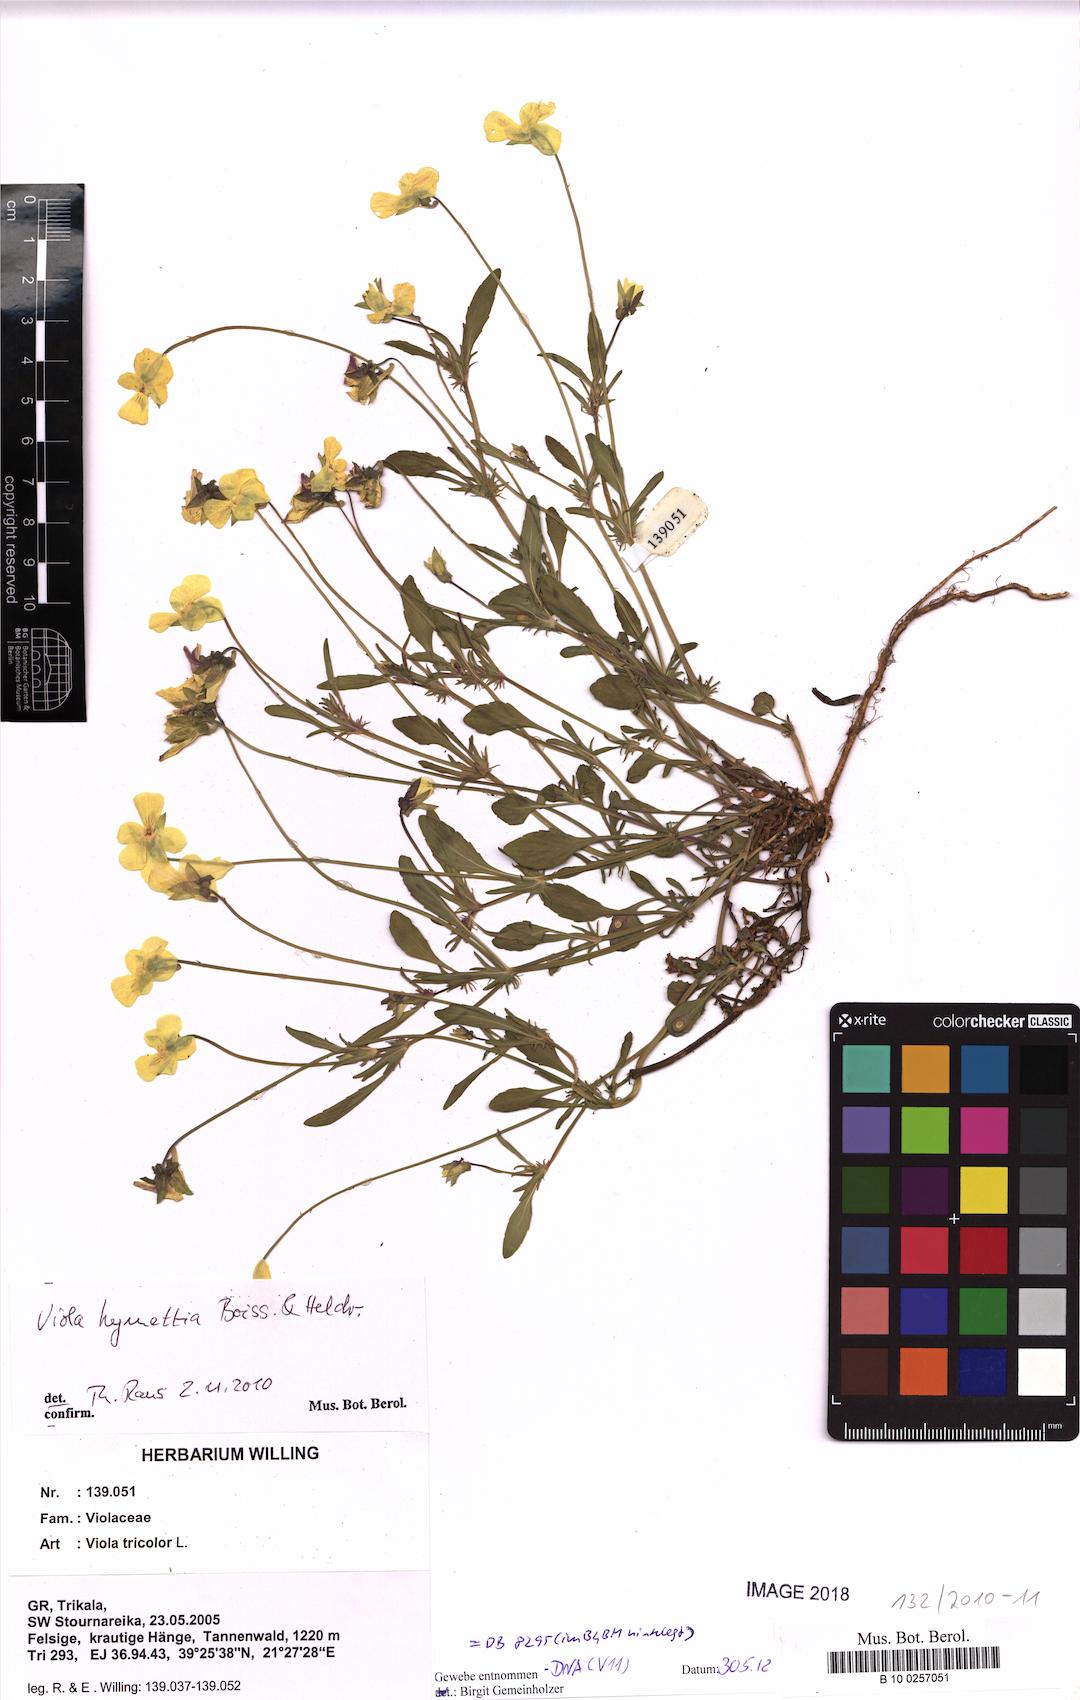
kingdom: Plantae
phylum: Tracheophyta
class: Magnoliopsida
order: Malpighiales
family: Violaceae
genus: Viola
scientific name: Viola hymettia
